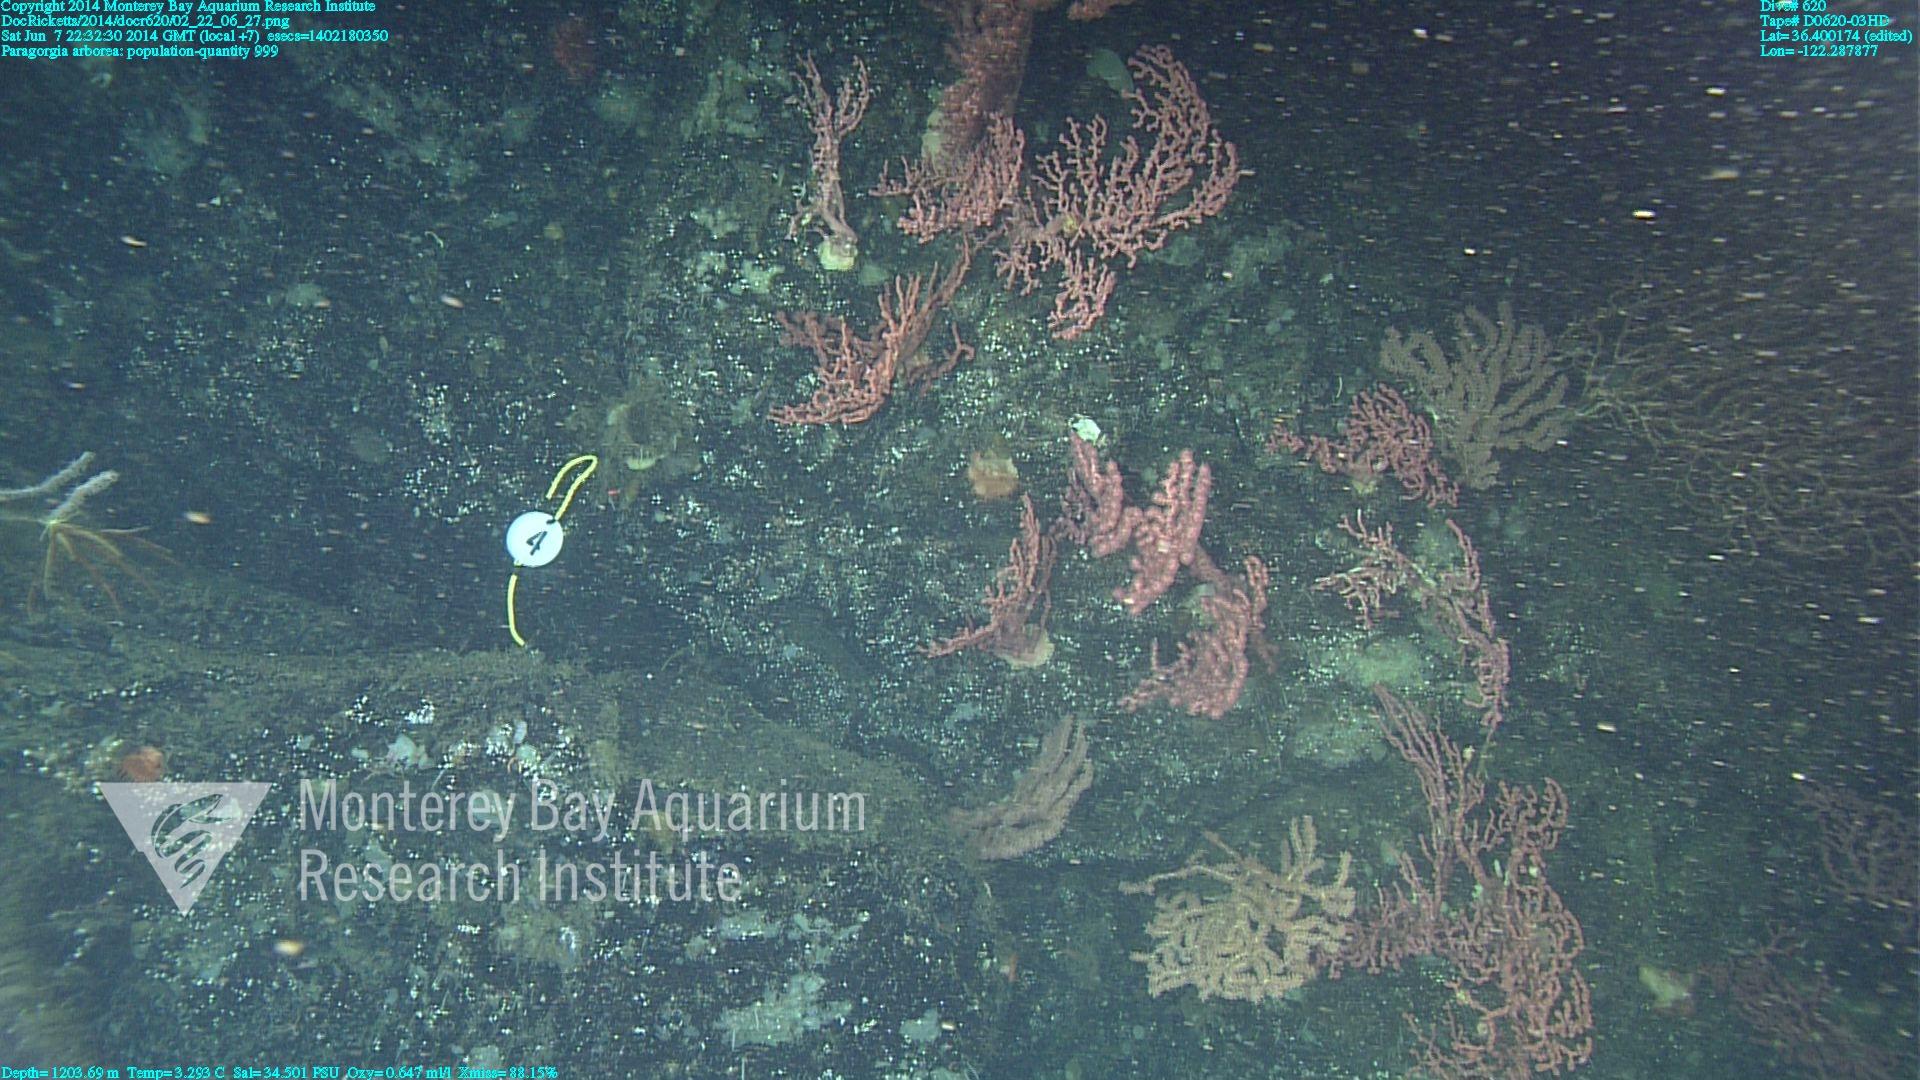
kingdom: Animalia
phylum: Cnidaria
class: Anthozoa
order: Scleralcyonacea
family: Coralliidae
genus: Paragorgia
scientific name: Paragorgia arborea
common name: Bubble gum coral
